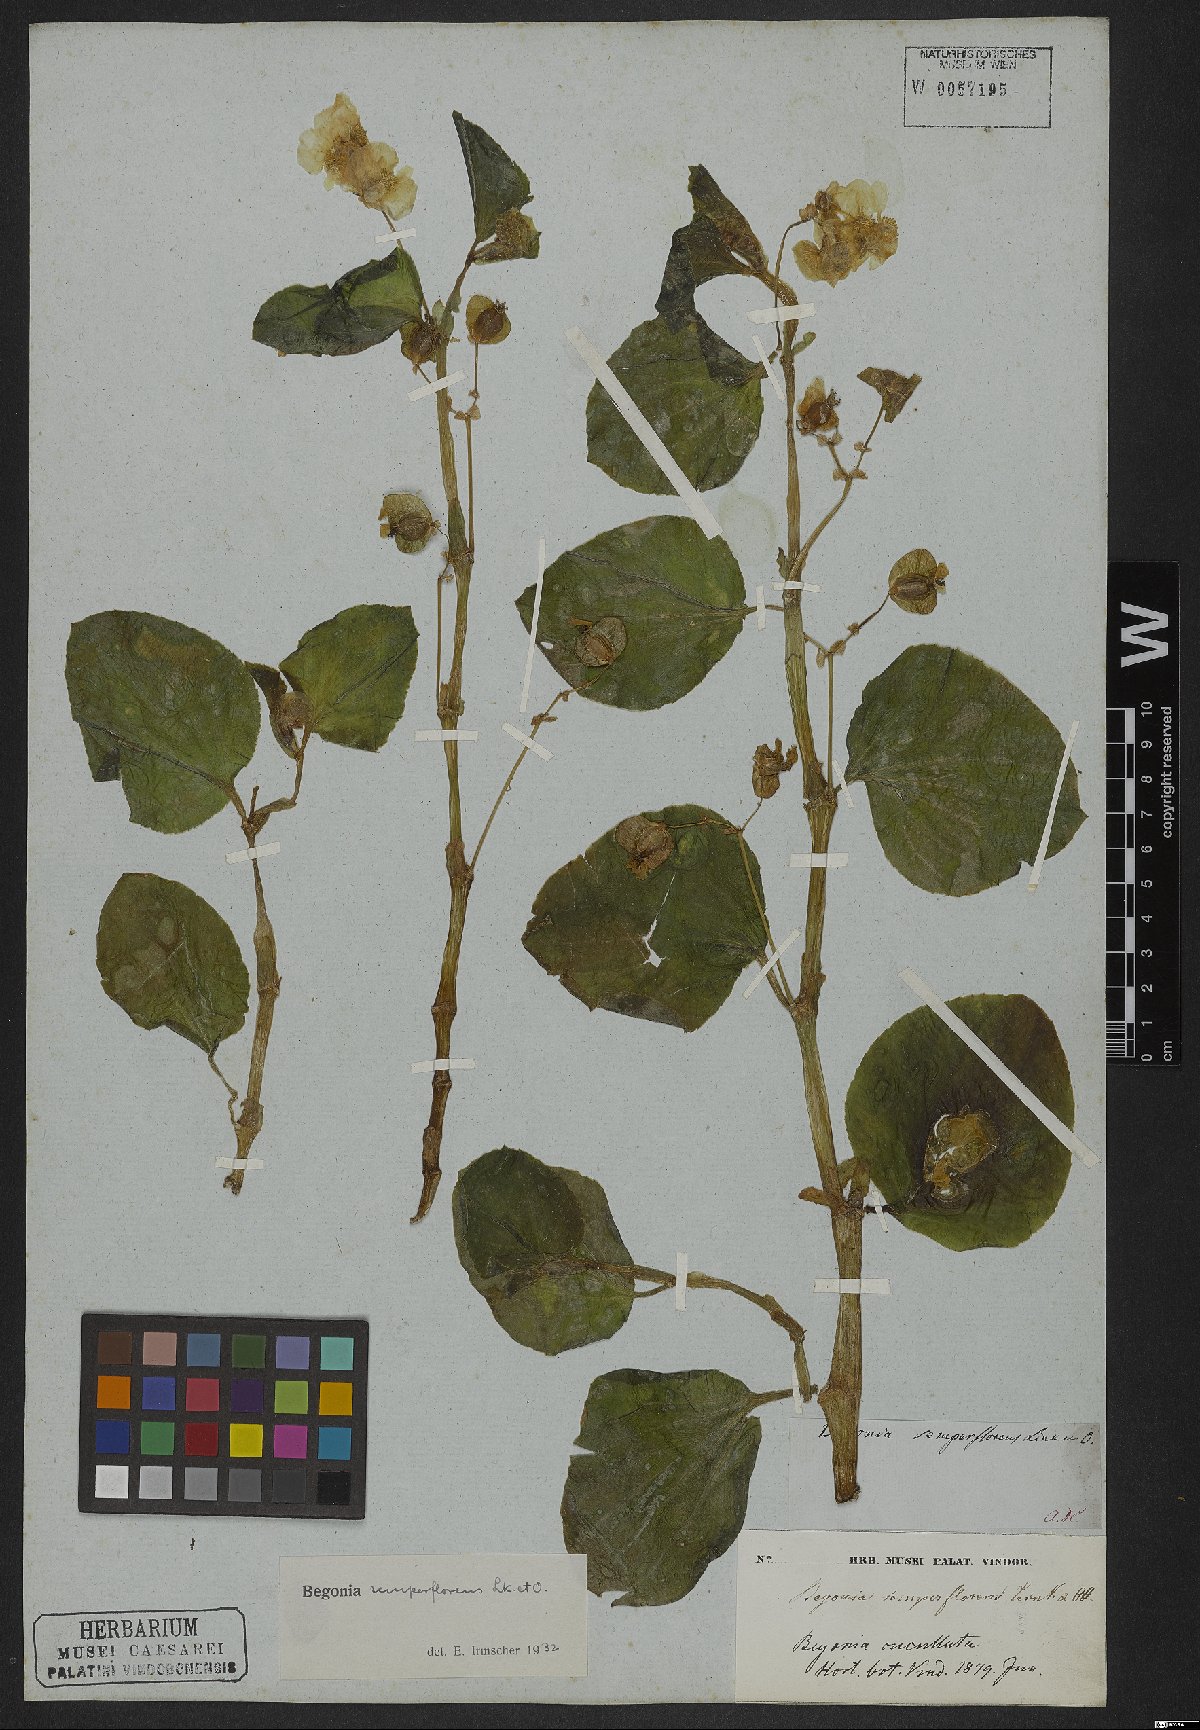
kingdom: Plantae
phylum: Tracheophyta
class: Magnoliopsida
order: Cucurbitales
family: Begoniaceae
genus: Begonia
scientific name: Begonia semperflorens
